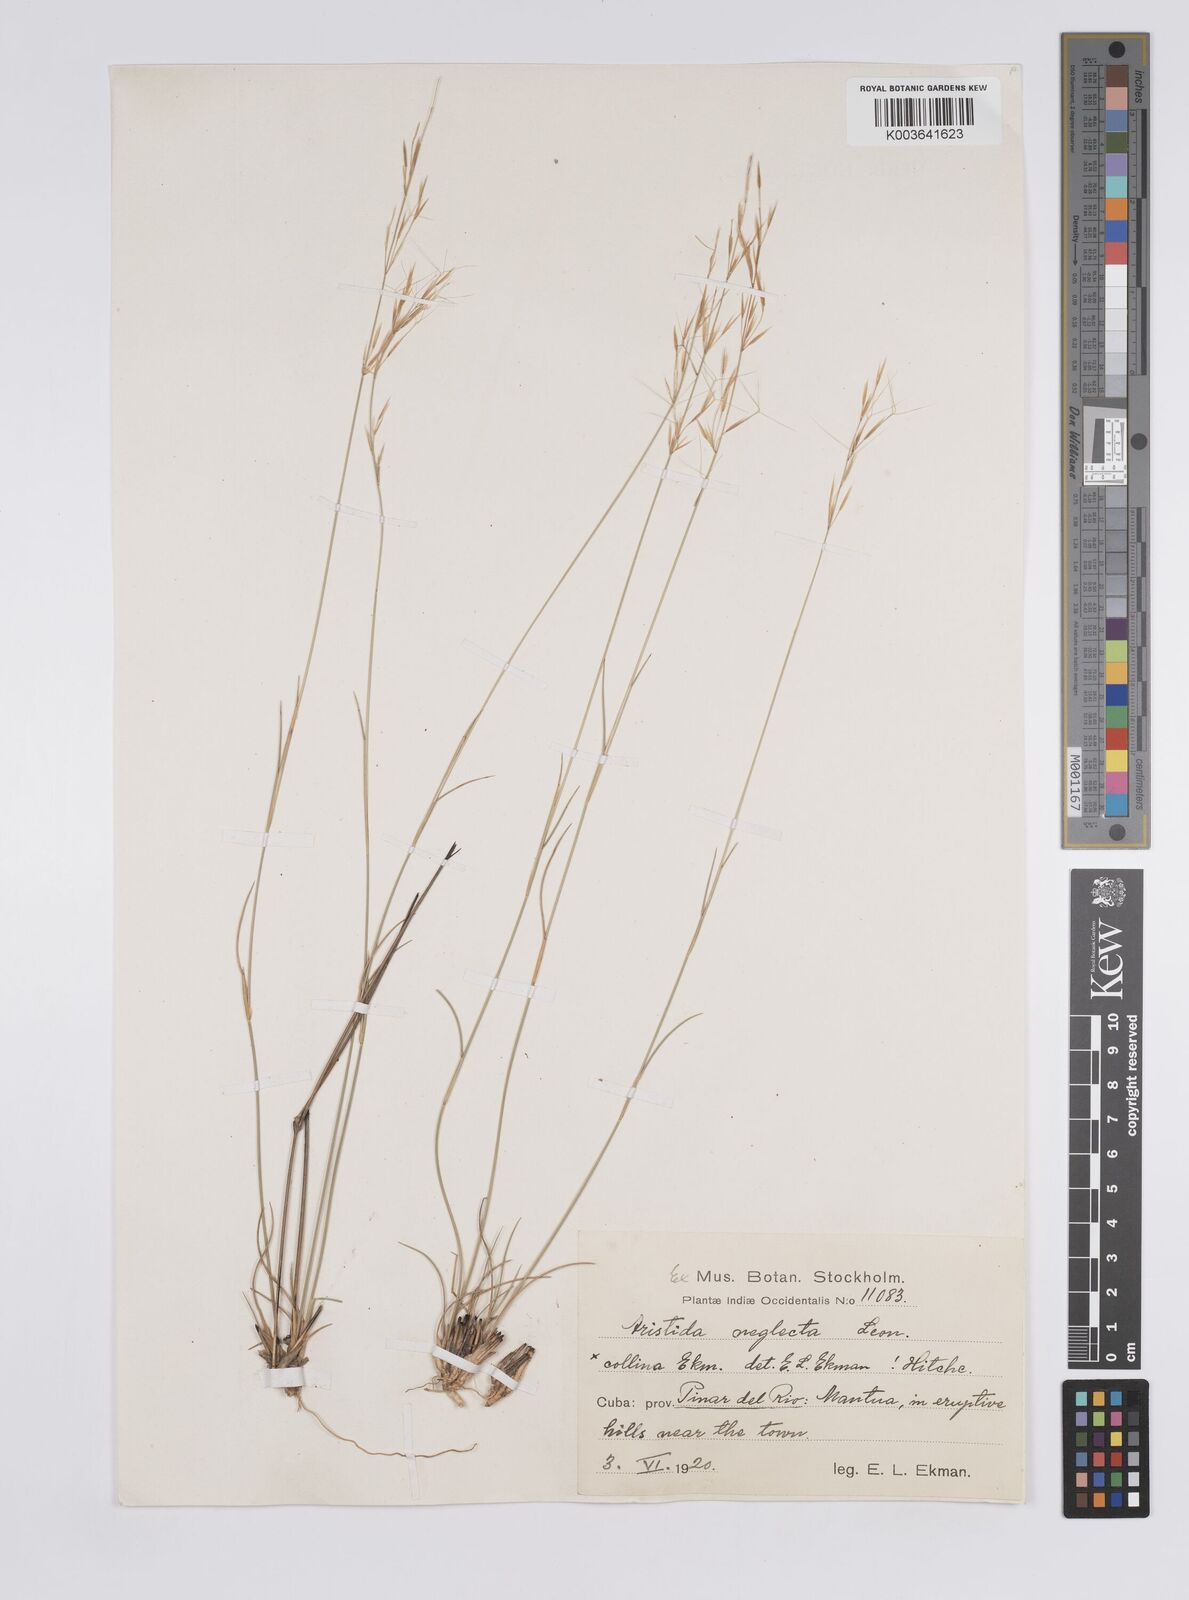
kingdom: Plantae
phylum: Tracheophyta
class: Liliopsida
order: Poales
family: Poaceae
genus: Aristida
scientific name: Aristida neglecta
